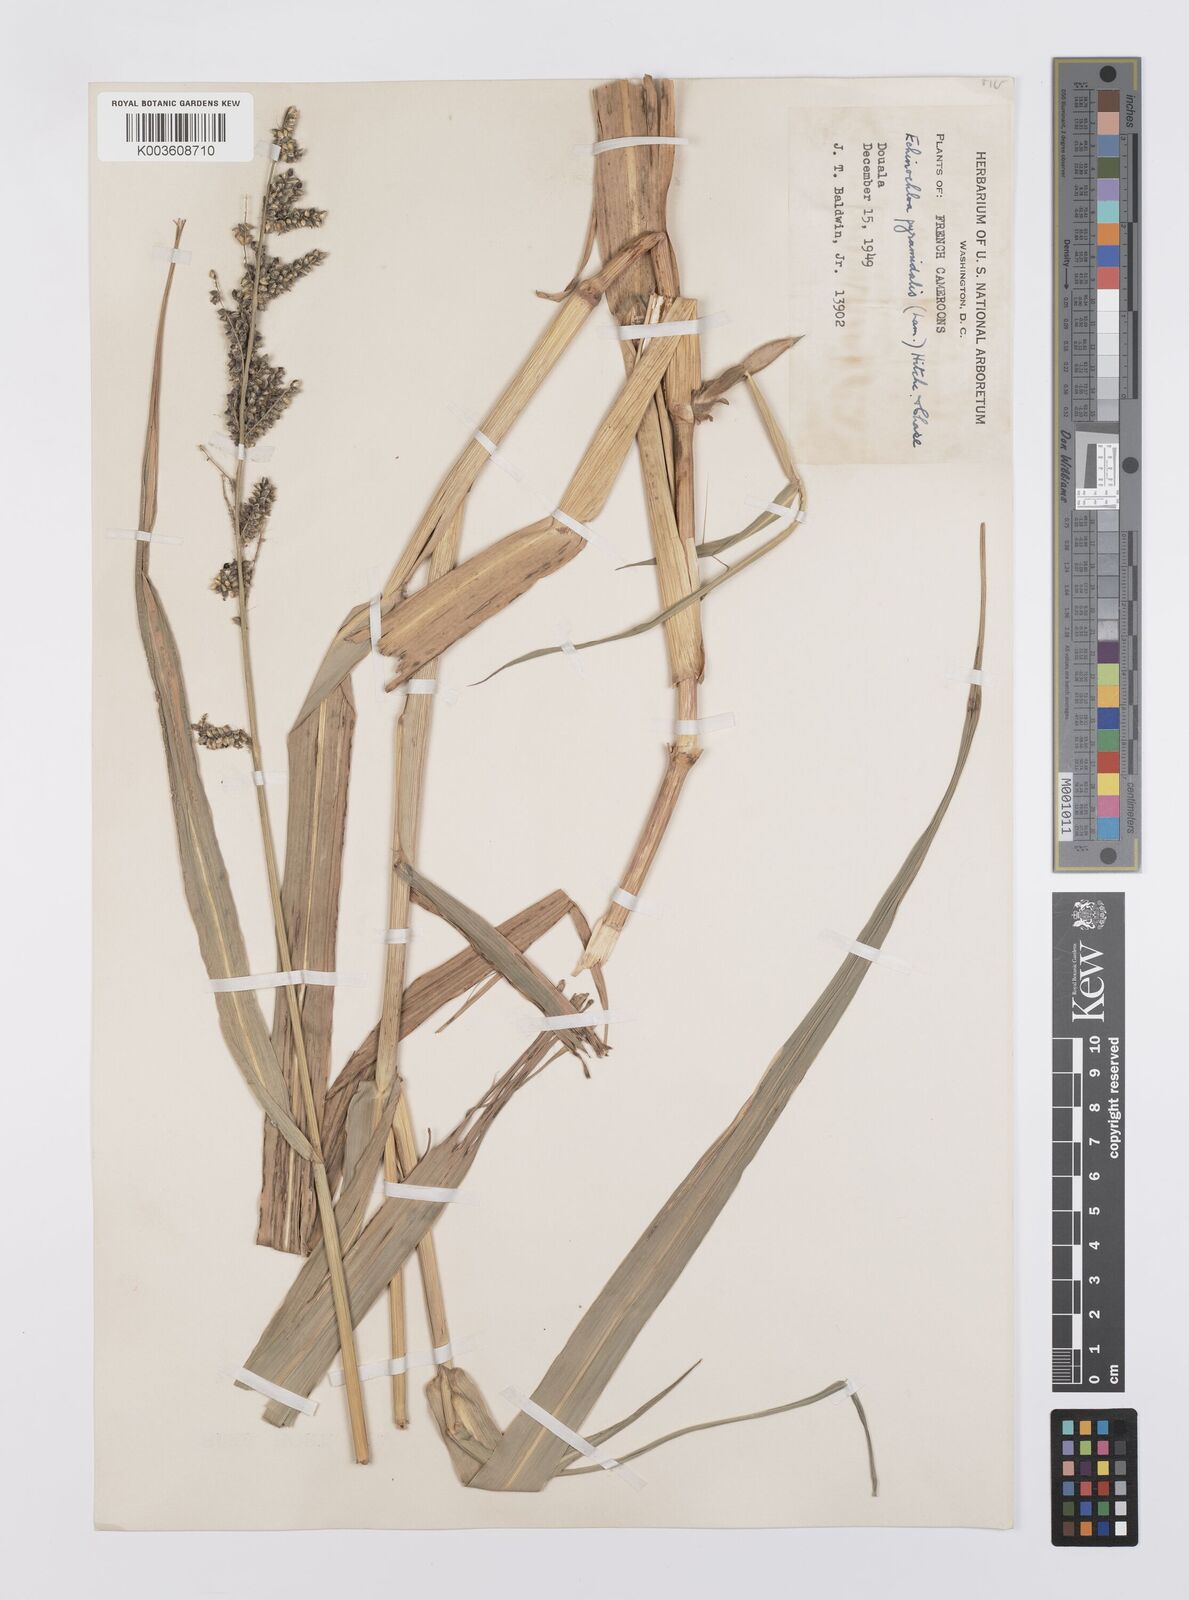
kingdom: Plantae
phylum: Tracheophyta
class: Liliopsida
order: Poales
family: Poaceae
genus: Echinochloa
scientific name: Echinochloa pyramidalis
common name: Antelope grass
